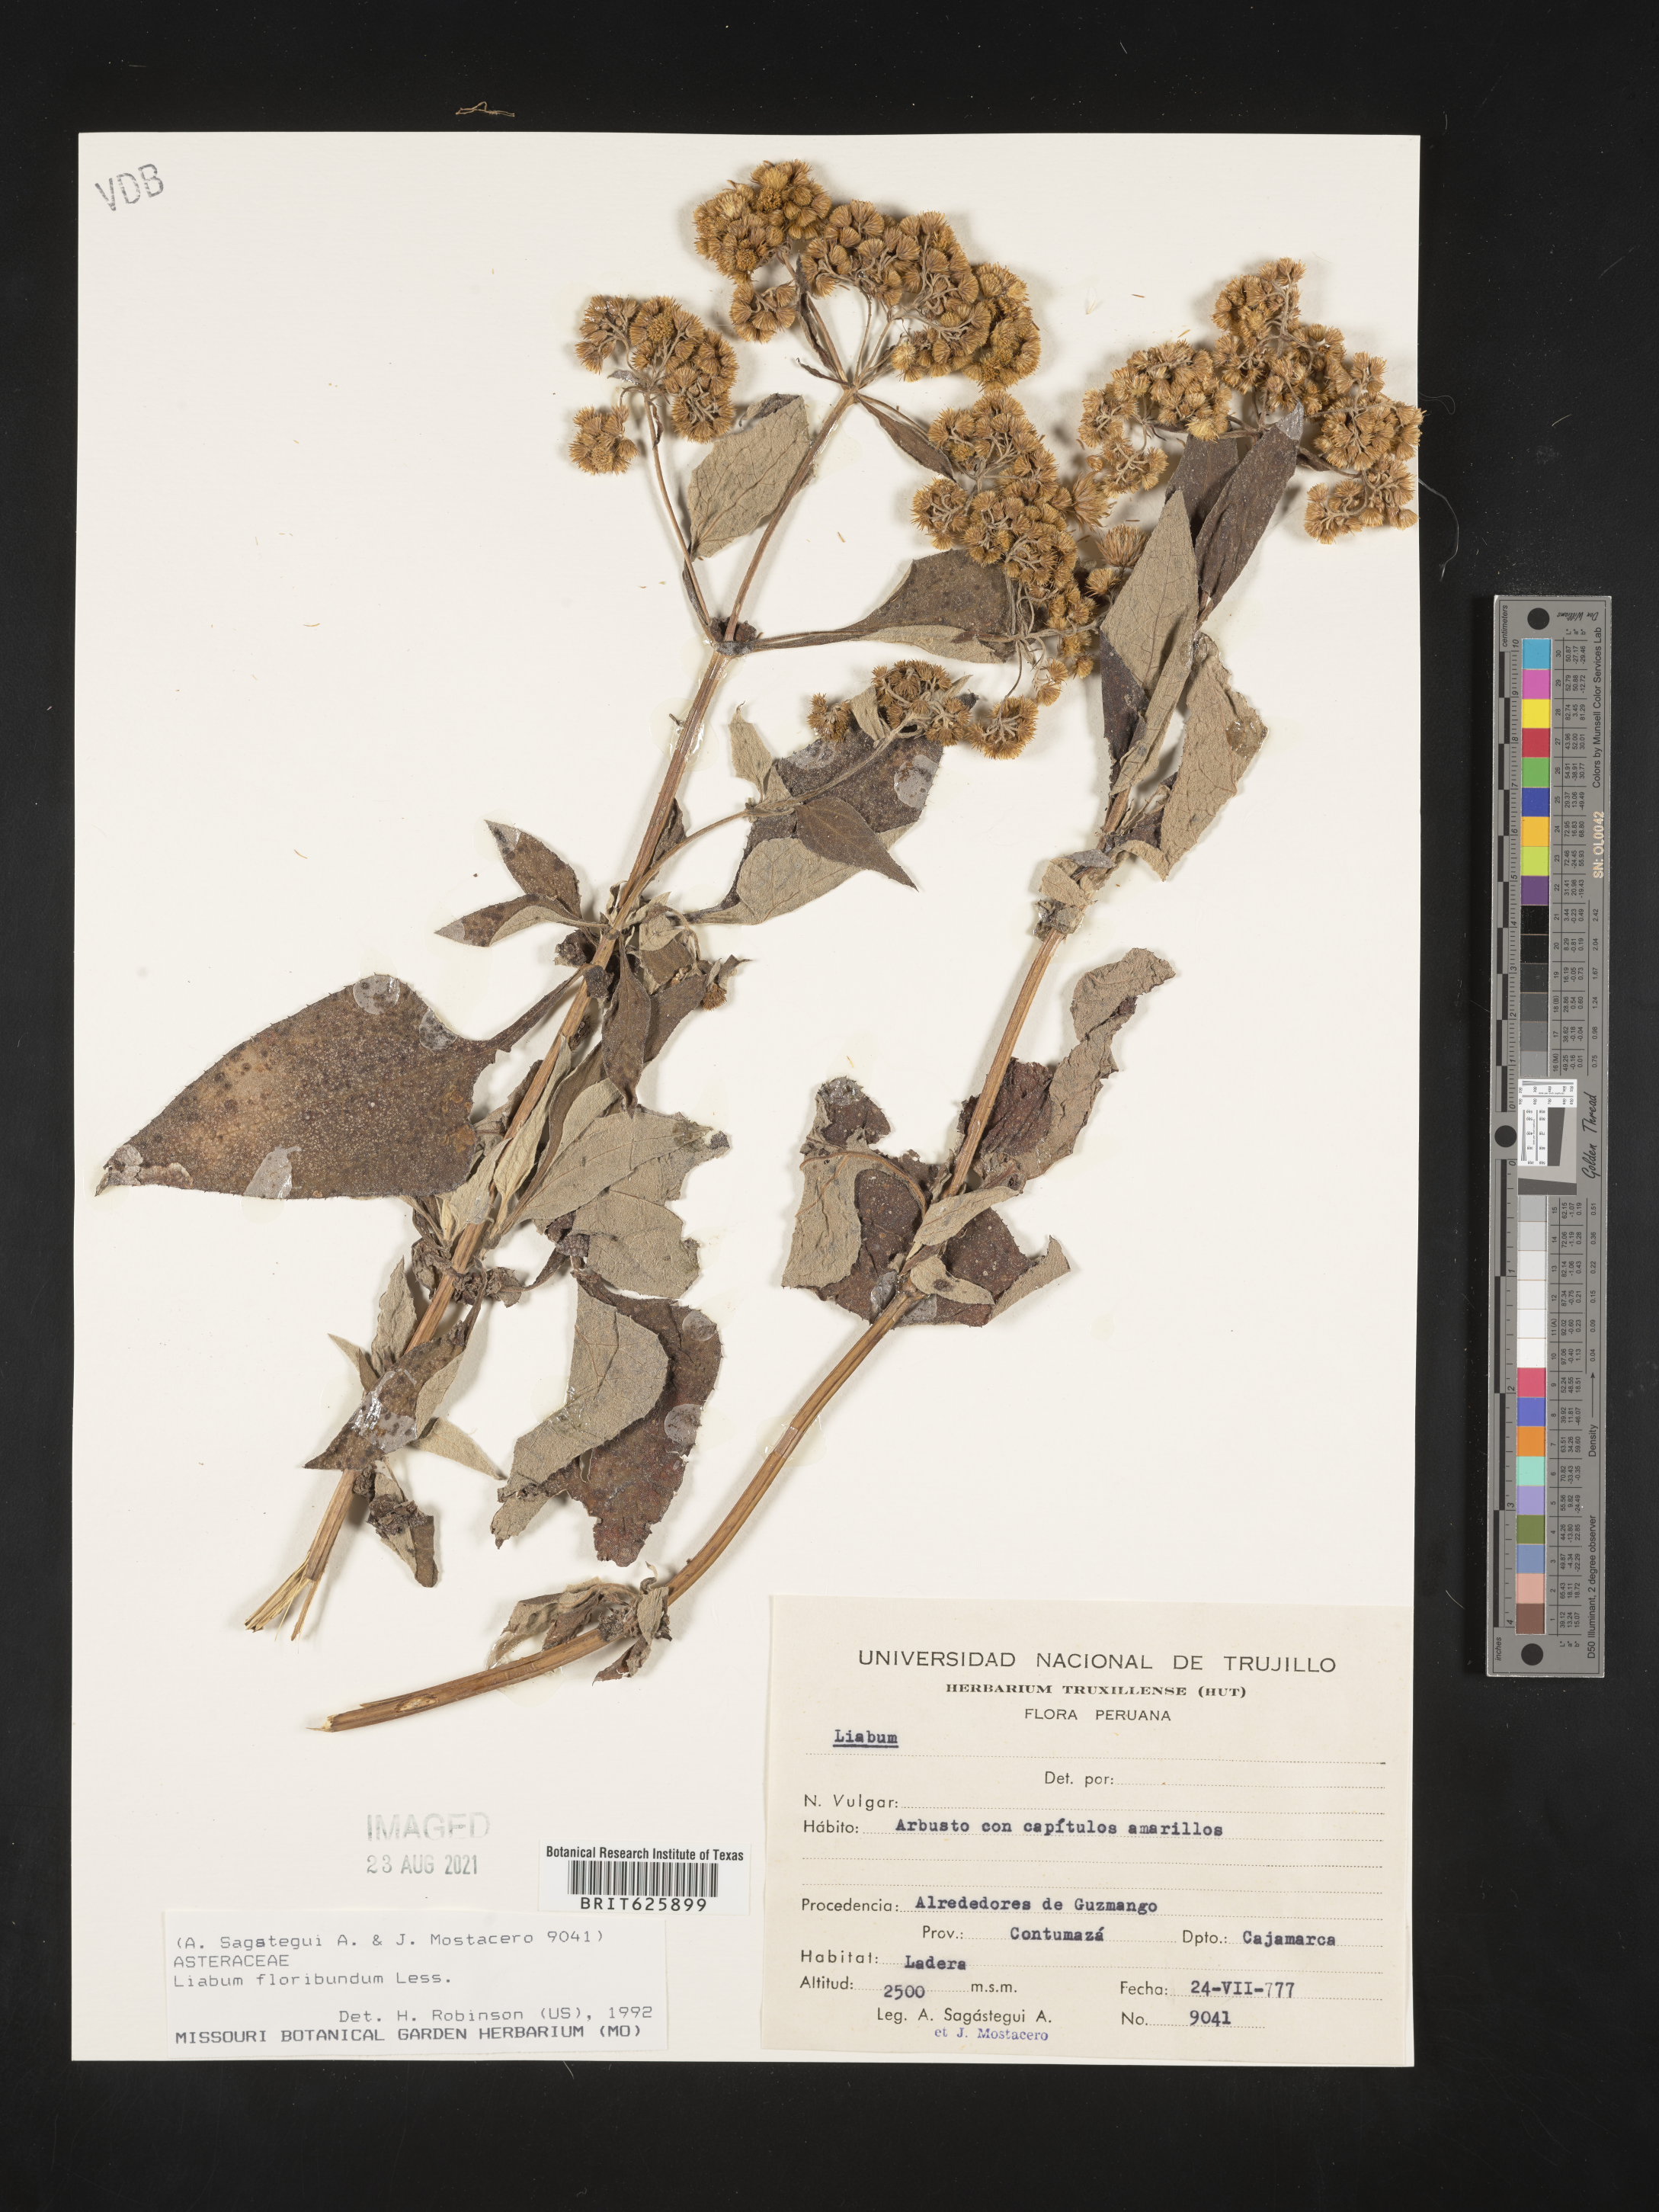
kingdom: Plantae
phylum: Tracheophyta
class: Magnoliopsida
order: Asterales
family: Asteraceae
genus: Liabum
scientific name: Liabum floribundum
